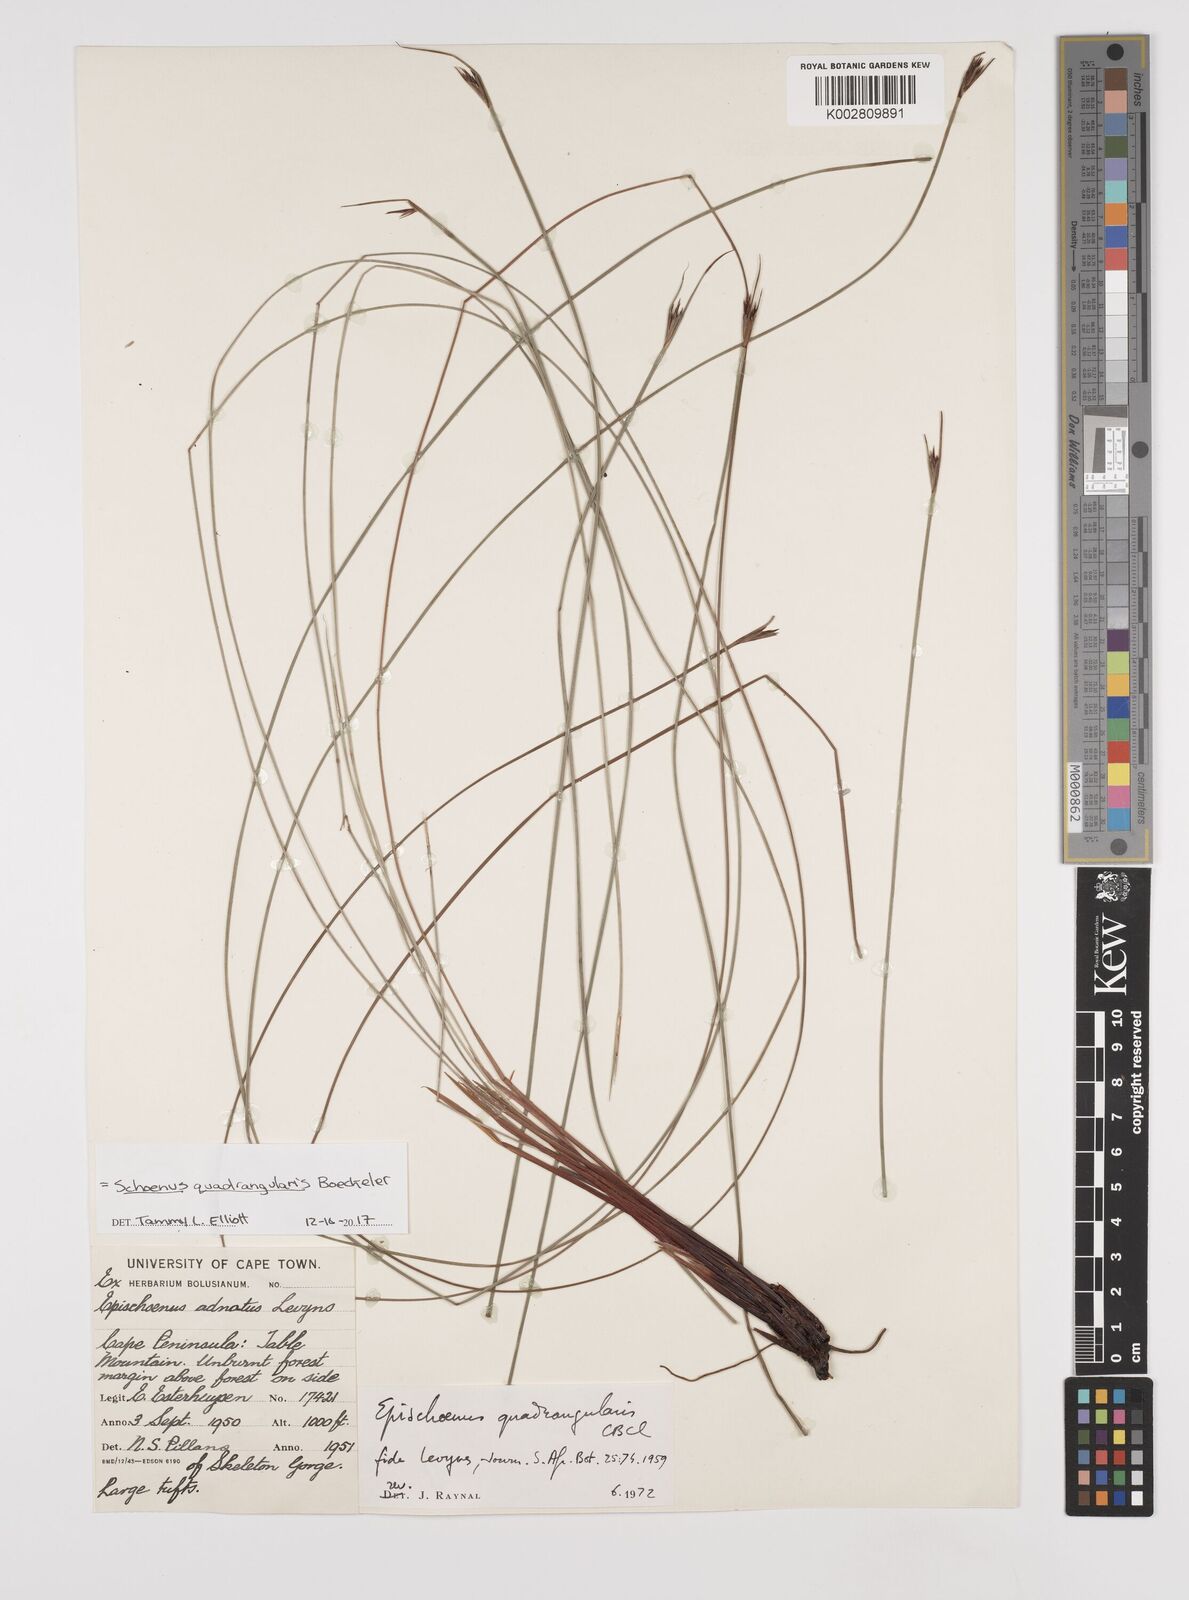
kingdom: Plantae
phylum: Tracheophyta
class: Liliopsida
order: Poales
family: Cyperaceae
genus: Schoenus
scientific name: Schoenus
